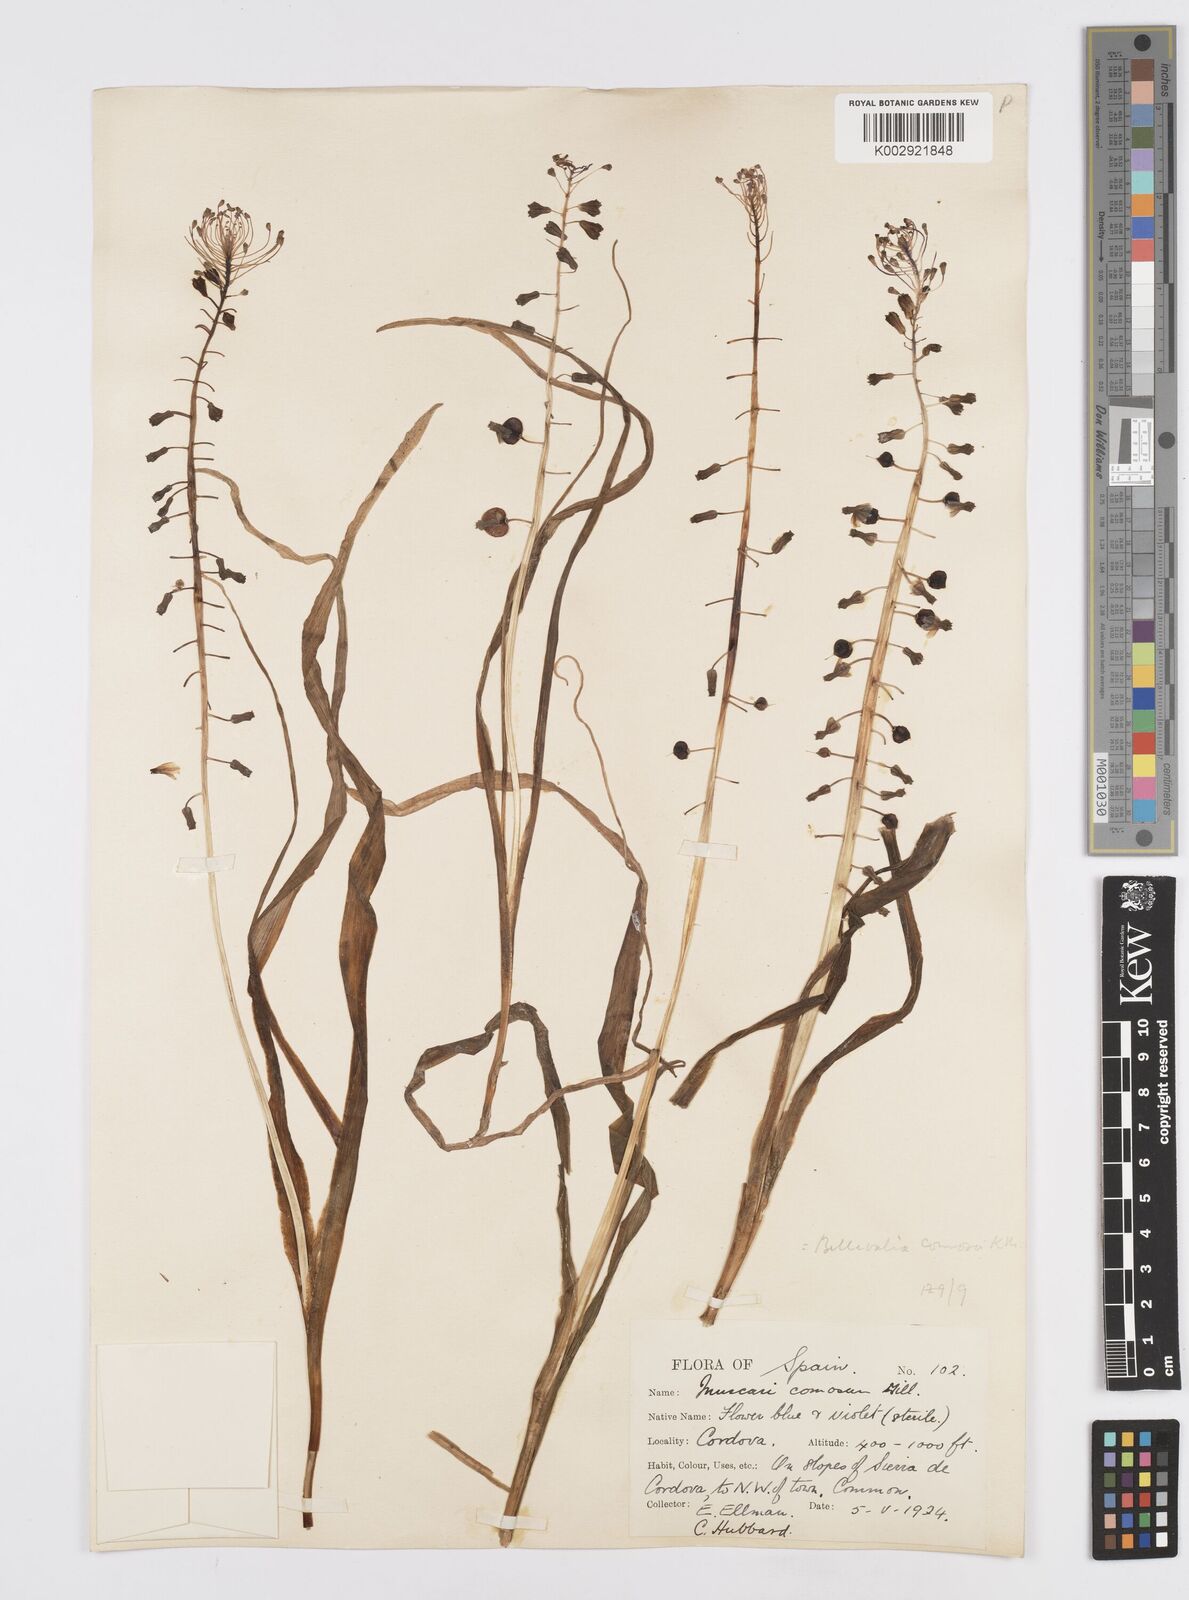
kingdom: Plantae
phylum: Tracheophyta
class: Liliopsida
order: Asparagales
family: Asparagaceae
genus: Muscari
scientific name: Muscari comosum
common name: Tassel hyacinth
